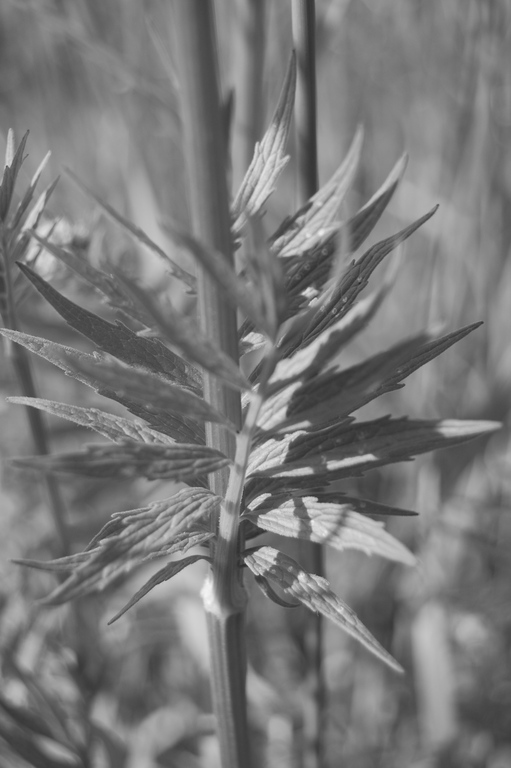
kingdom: Plantae
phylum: Tracheophyta
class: Magnoliopsida
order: Dipsacales
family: Caprifoliaceae
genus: Valeriana
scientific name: Valeriana officinalis
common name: Common valerian
